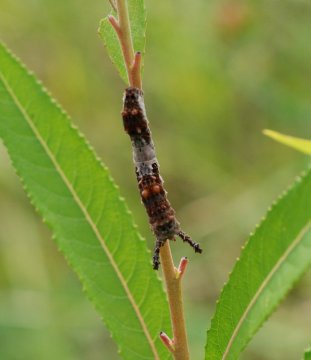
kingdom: Animalia
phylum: Arthropoda
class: Insecta
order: Lepidoptera
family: Nymphalidae
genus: Limenitis
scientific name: Limenitis archippus
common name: Viceroy
